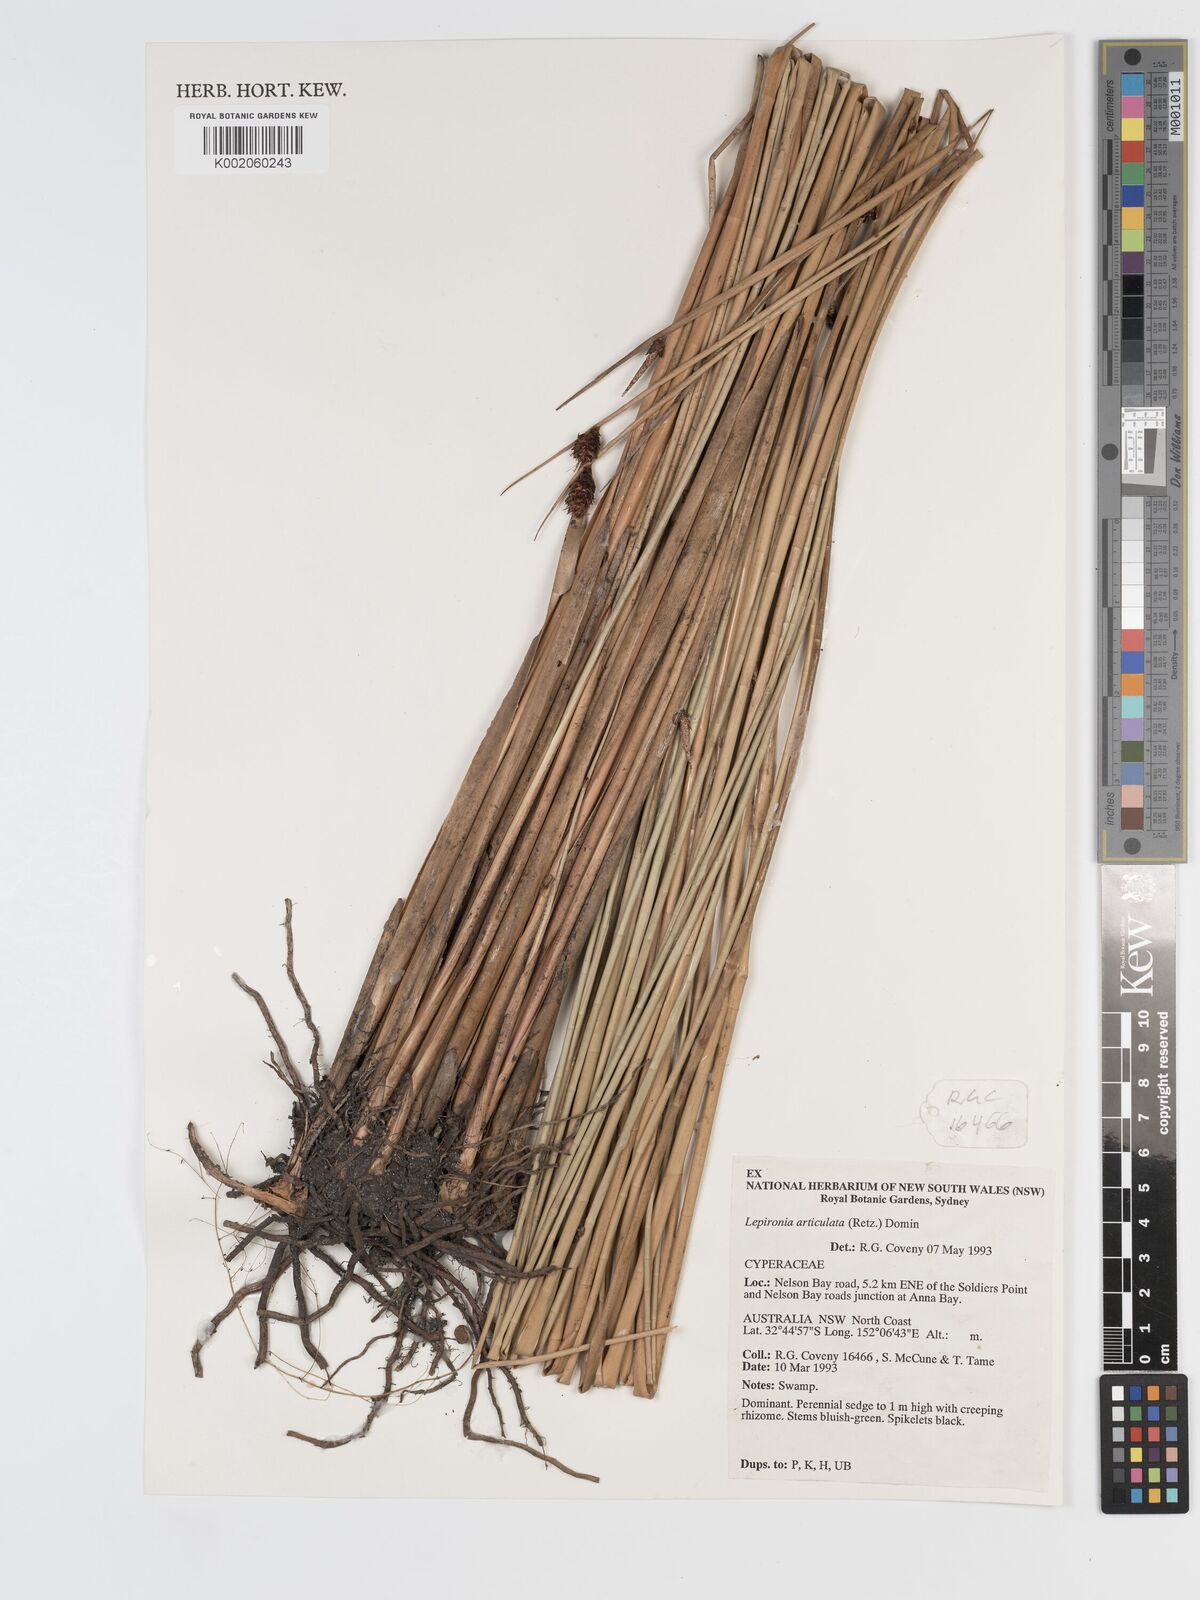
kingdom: Plantae
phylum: Tracheophyta
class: Liliopsida
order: Poales
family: Cyperaceae
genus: Lepironia
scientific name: Lepironia articulata
